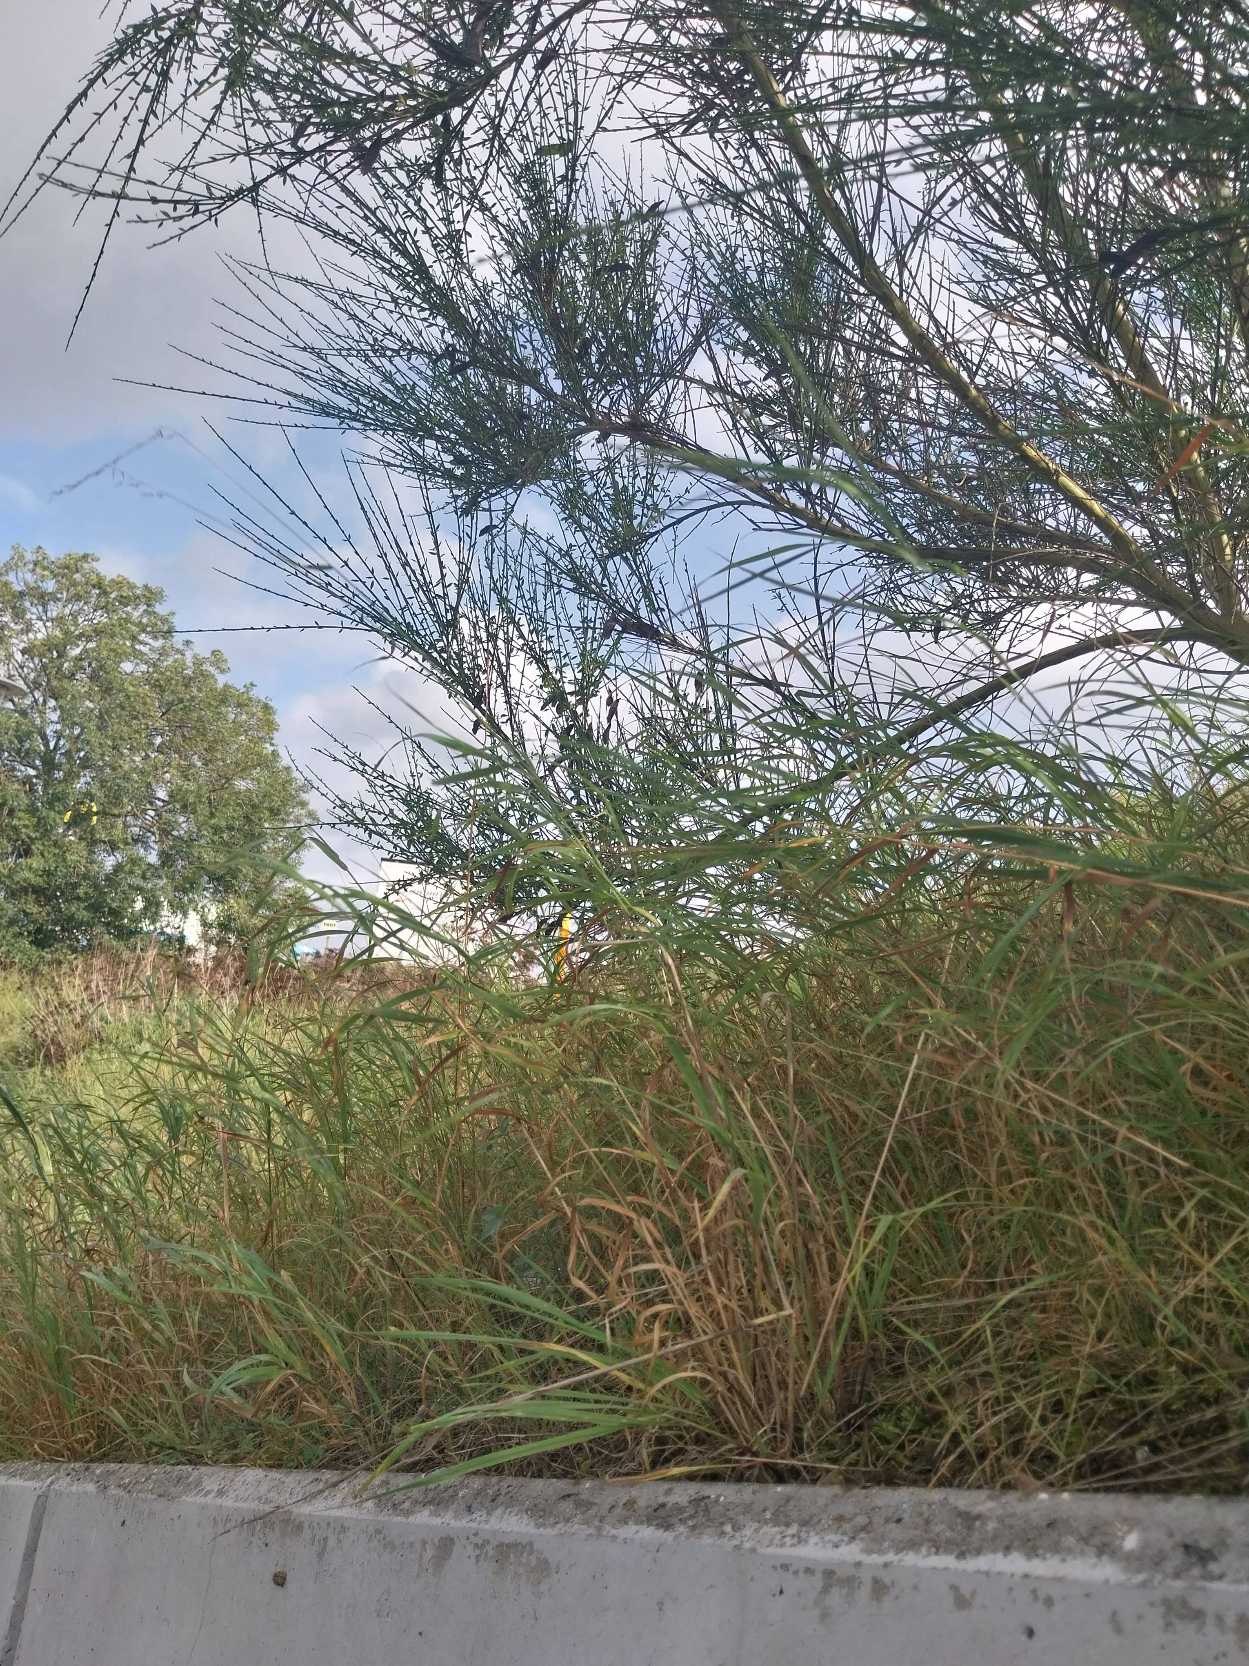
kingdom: Plantae
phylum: Tracheophyta
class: Magnoliopsida
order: Fabales
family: Fabaceae
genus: Cytisus
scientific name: Cytisus scoparius
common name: Almindelig gyvel
